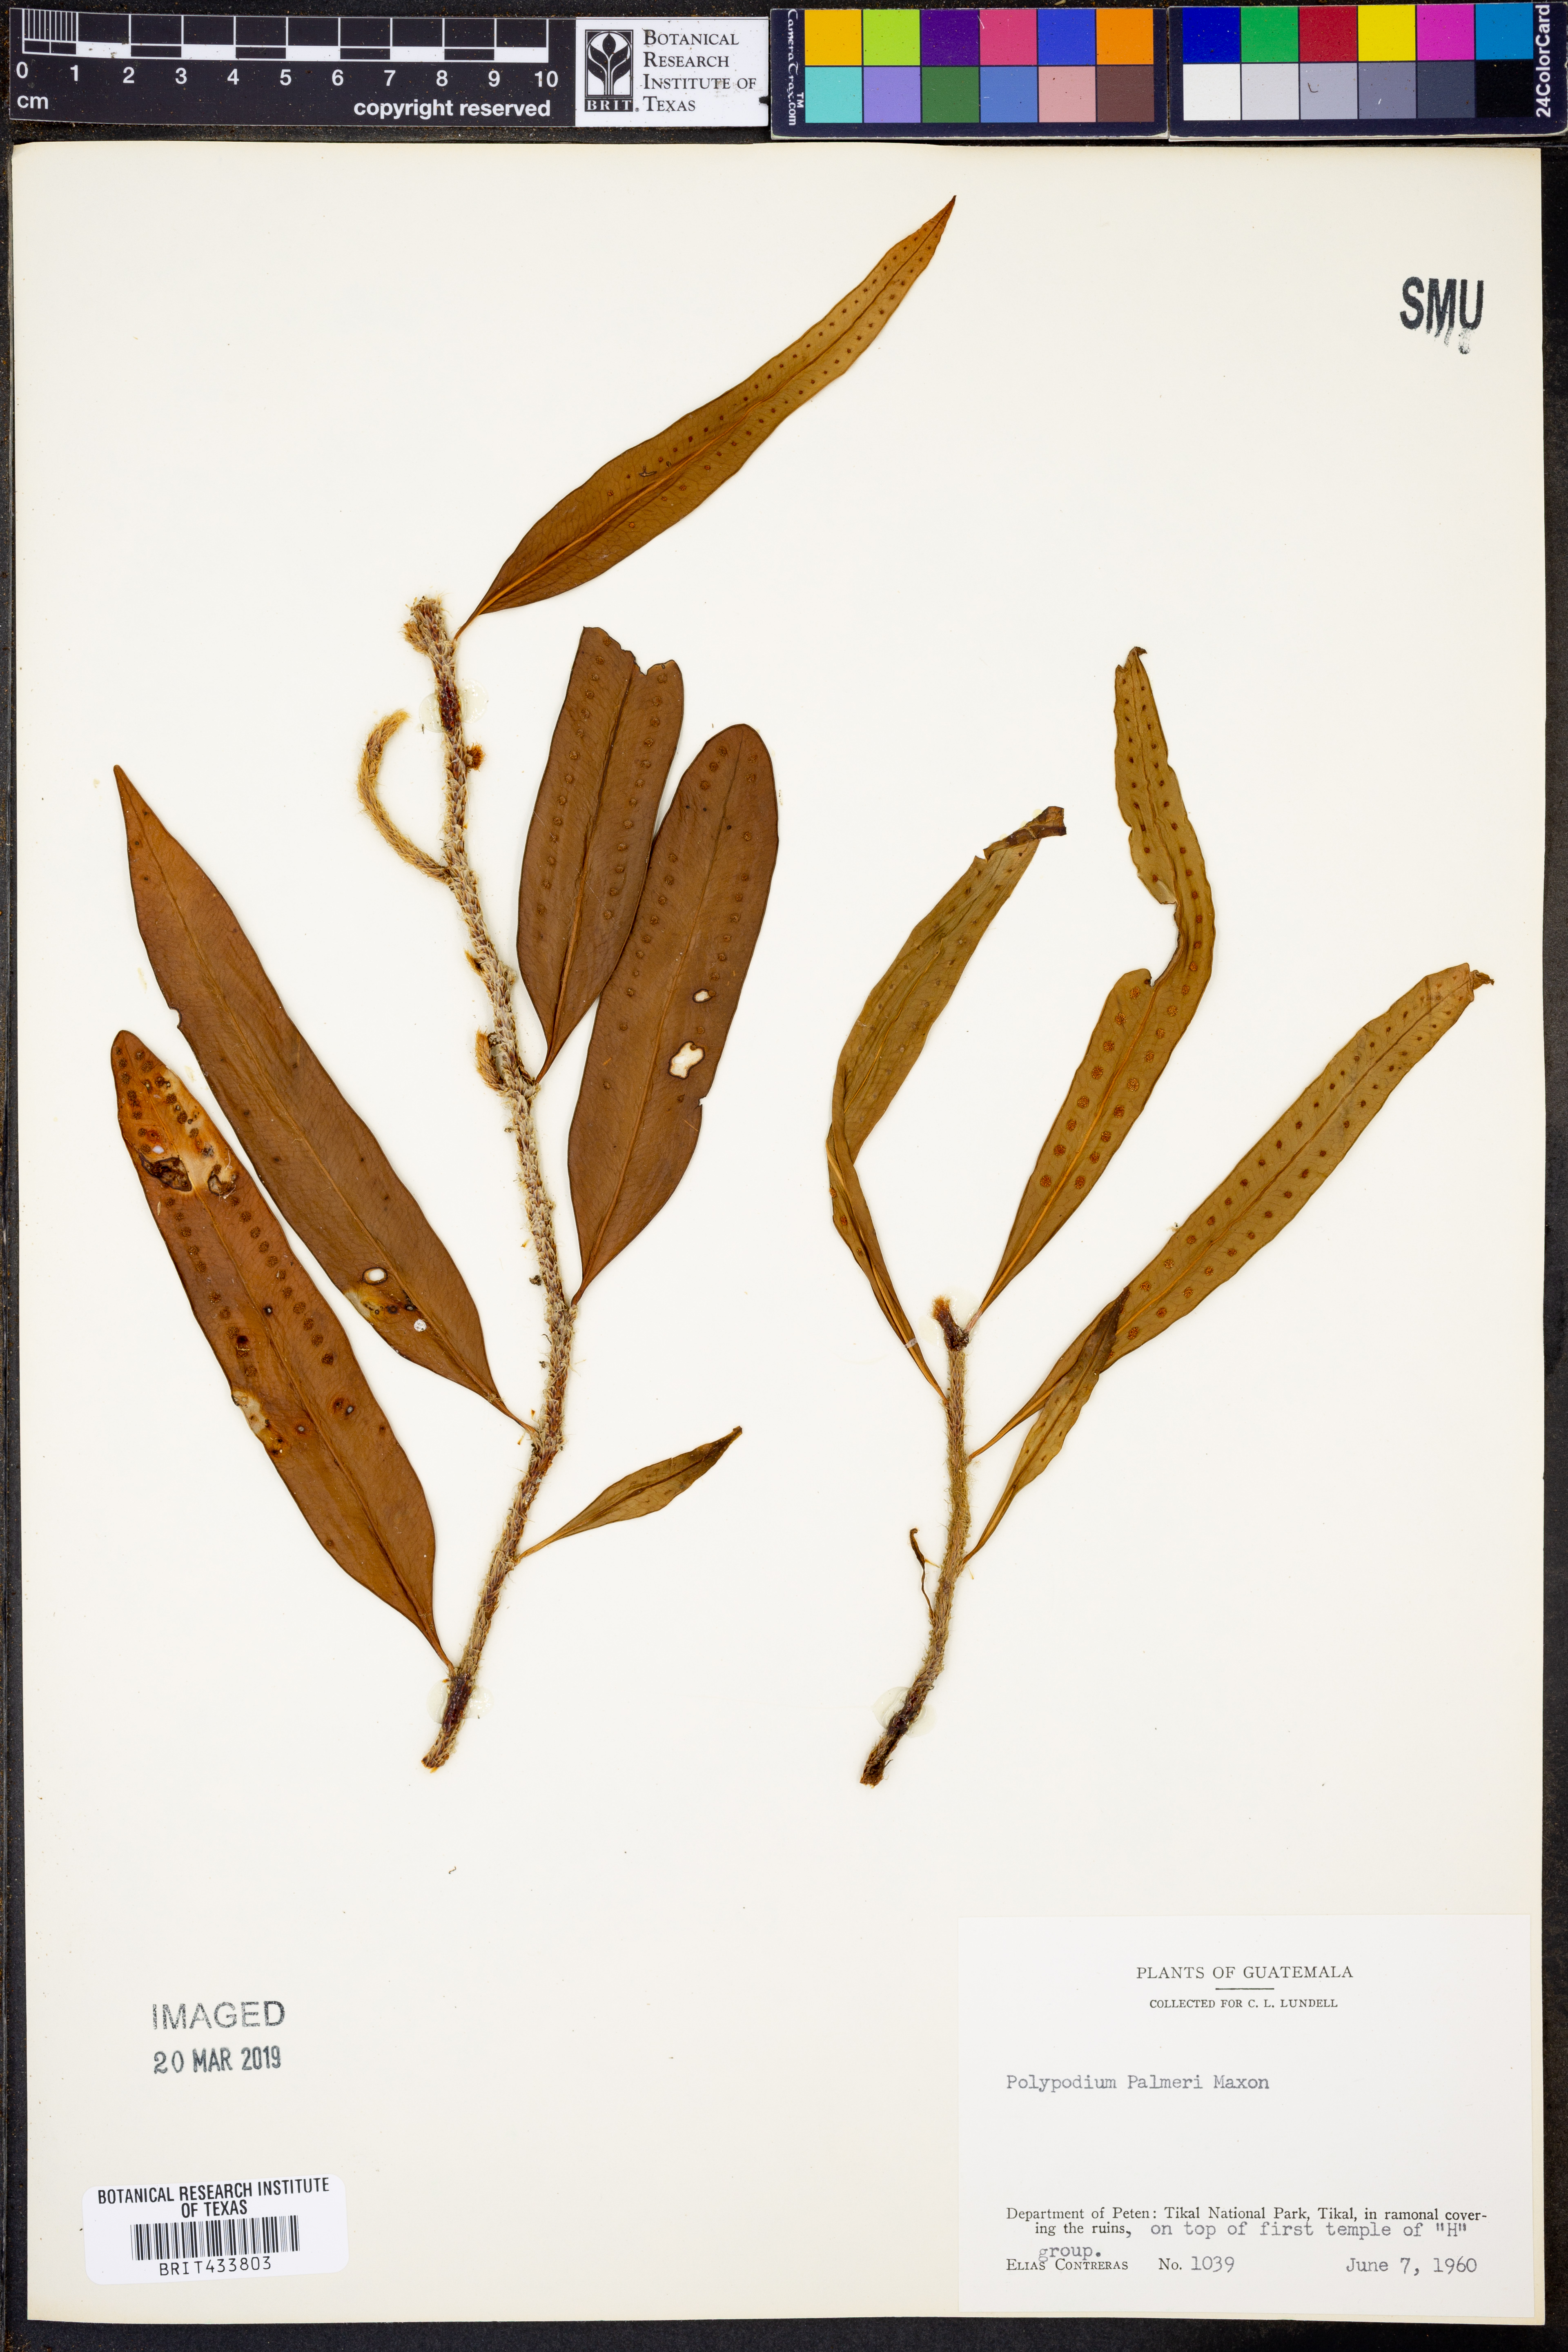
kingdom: Plantae
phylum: Tracheophyta
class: Polypodiopsida
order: Polypodiales
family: Polypodiaceae
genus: Microgramma
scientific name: Microgramma nitida
